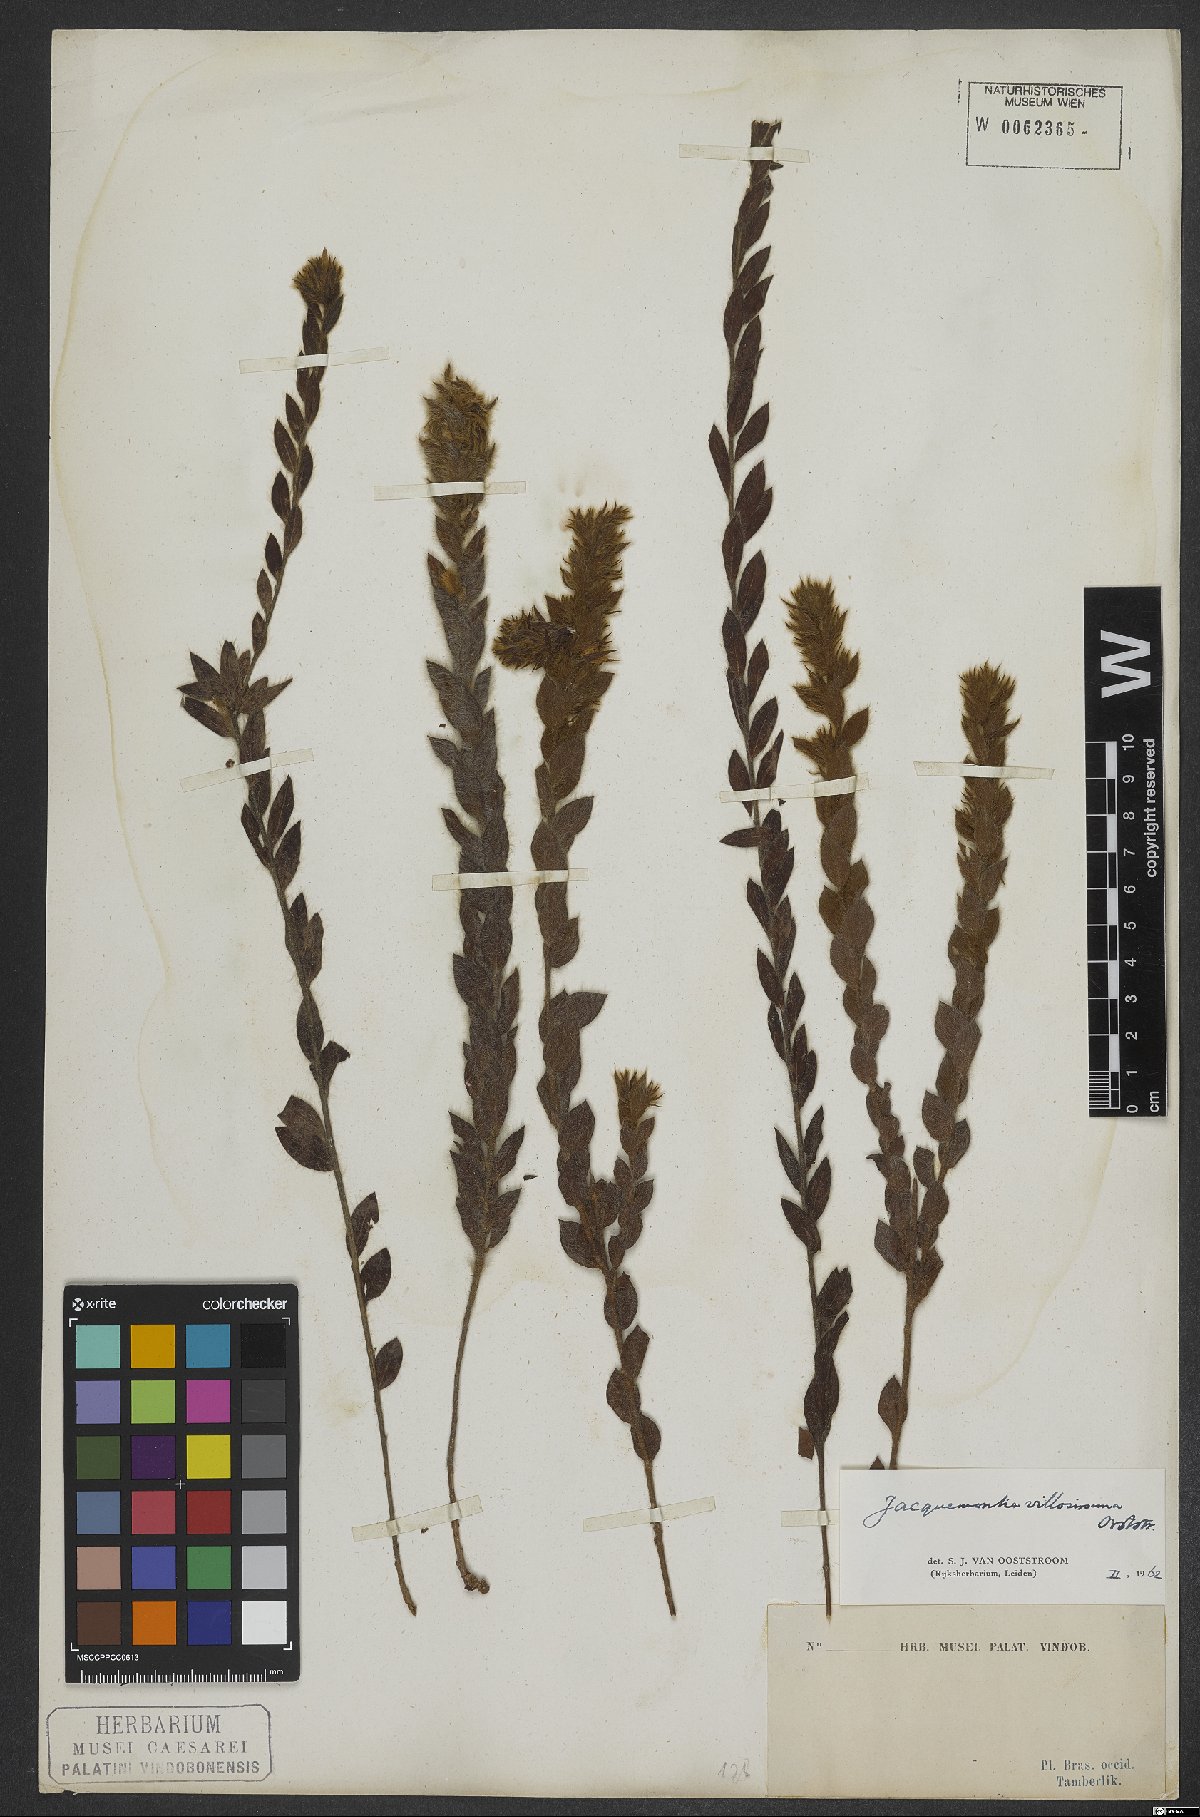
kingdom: Plantae
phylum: Tracheophyta
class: Magnoliopsida
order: Solanales
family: Convolvulaceae
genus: Jacquemontia
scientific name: Jacquemontia villosissima
